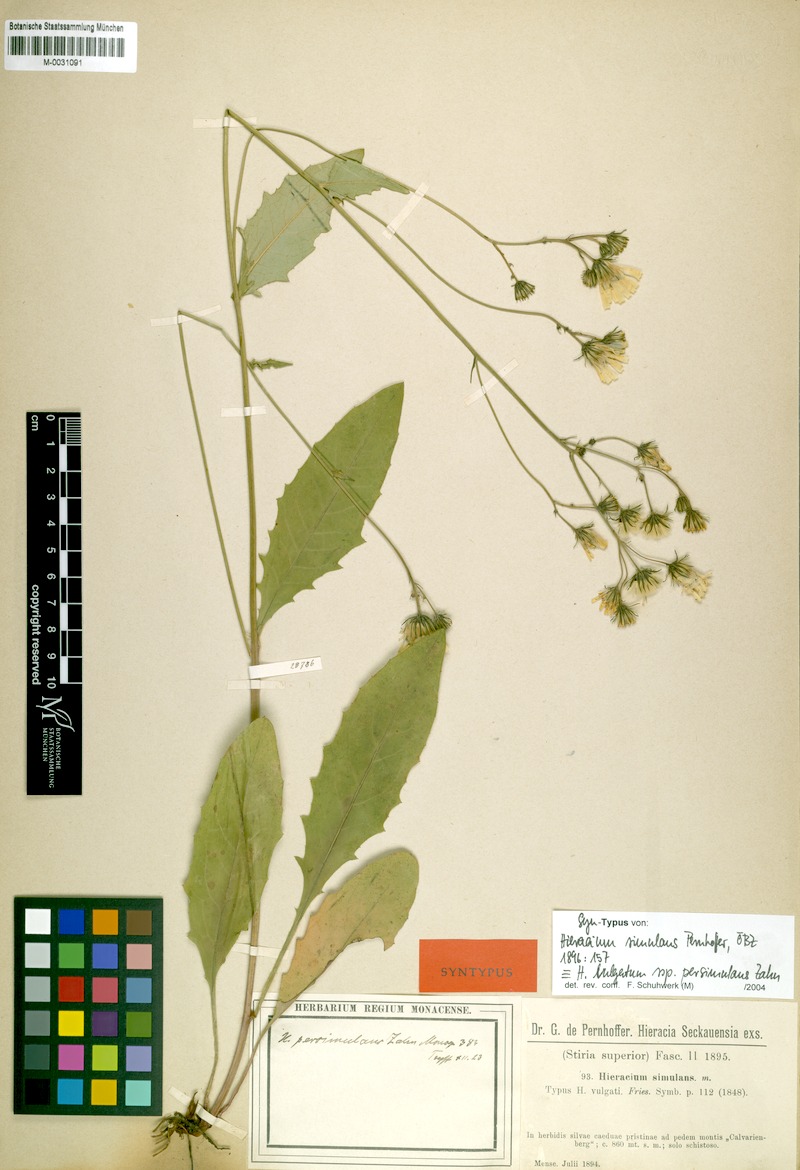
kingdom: Plantae
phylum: Tracheophyta
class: Magnoliopsida
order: Asterales
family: Asteraceae
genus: Hieracium
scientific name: Hieracium lachenalii
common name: Common hawkweed
